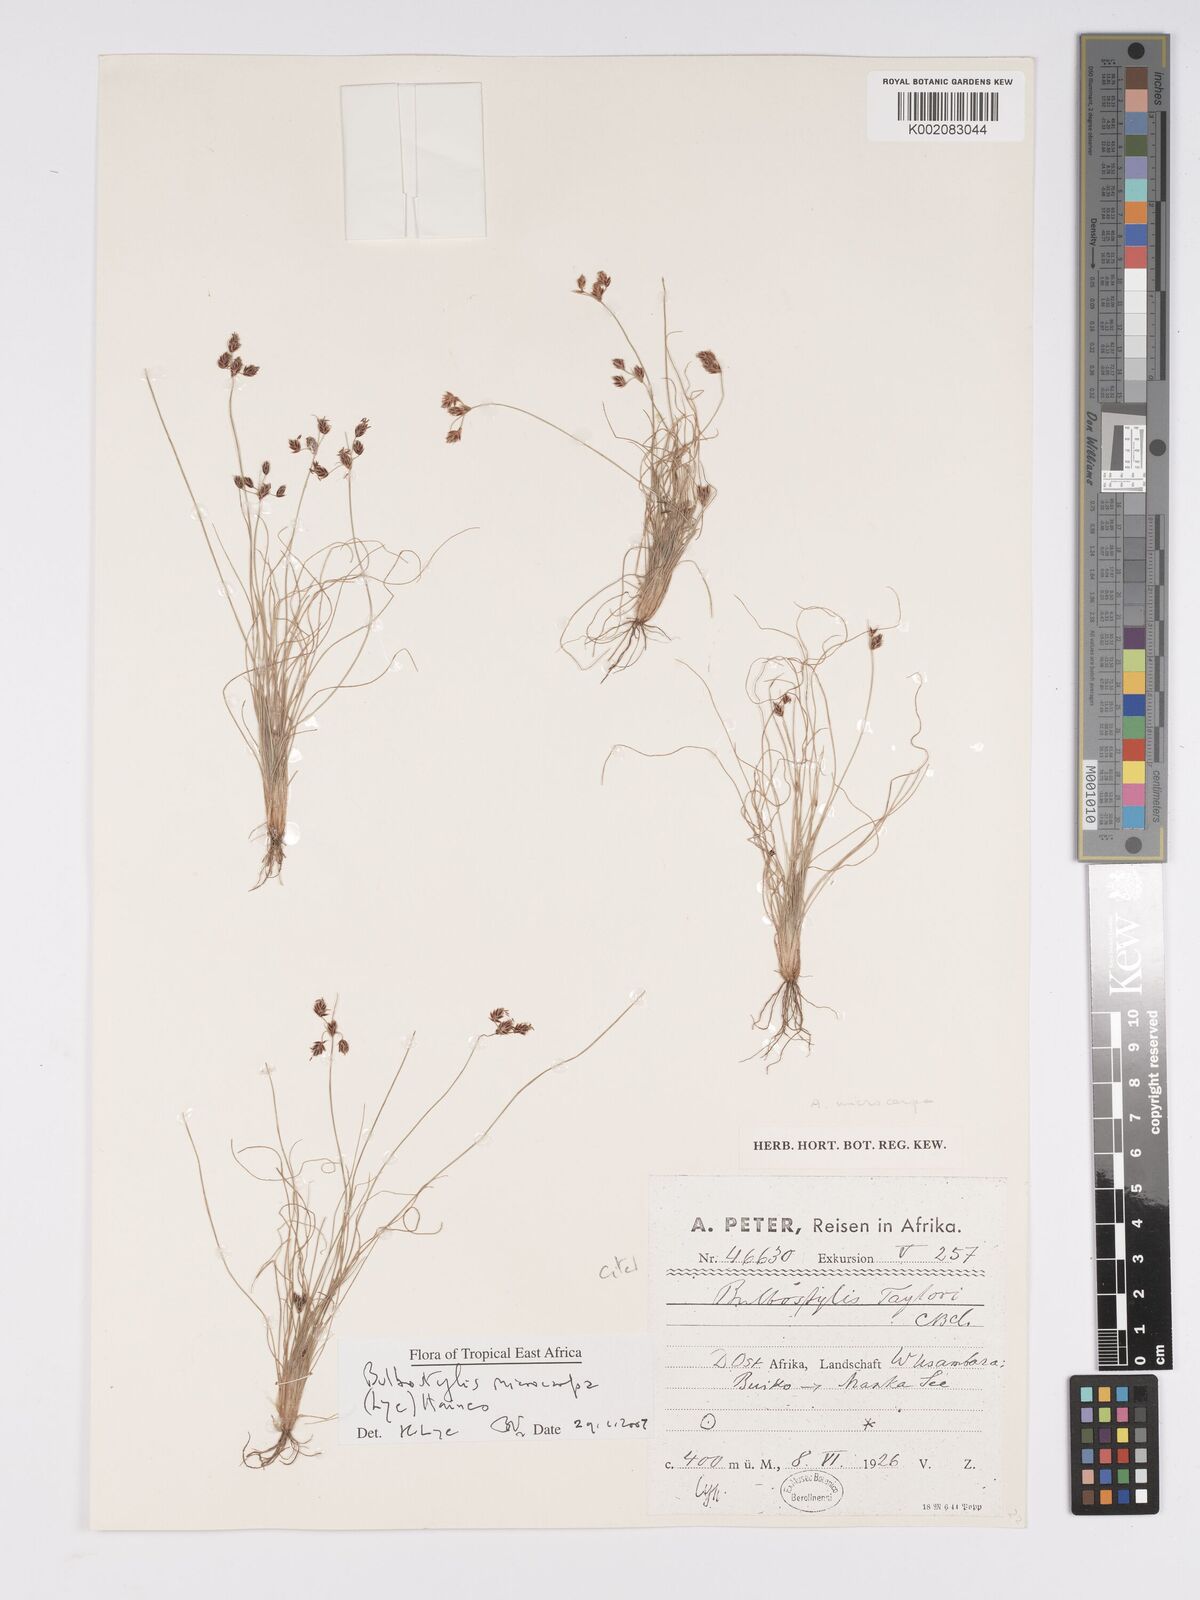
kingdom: Plantae
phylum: Tracheophyta
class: Liliopsida
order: Poales
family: Cyperaceae
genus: Bulbostylis
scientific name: Bulbostylis microcarpa
